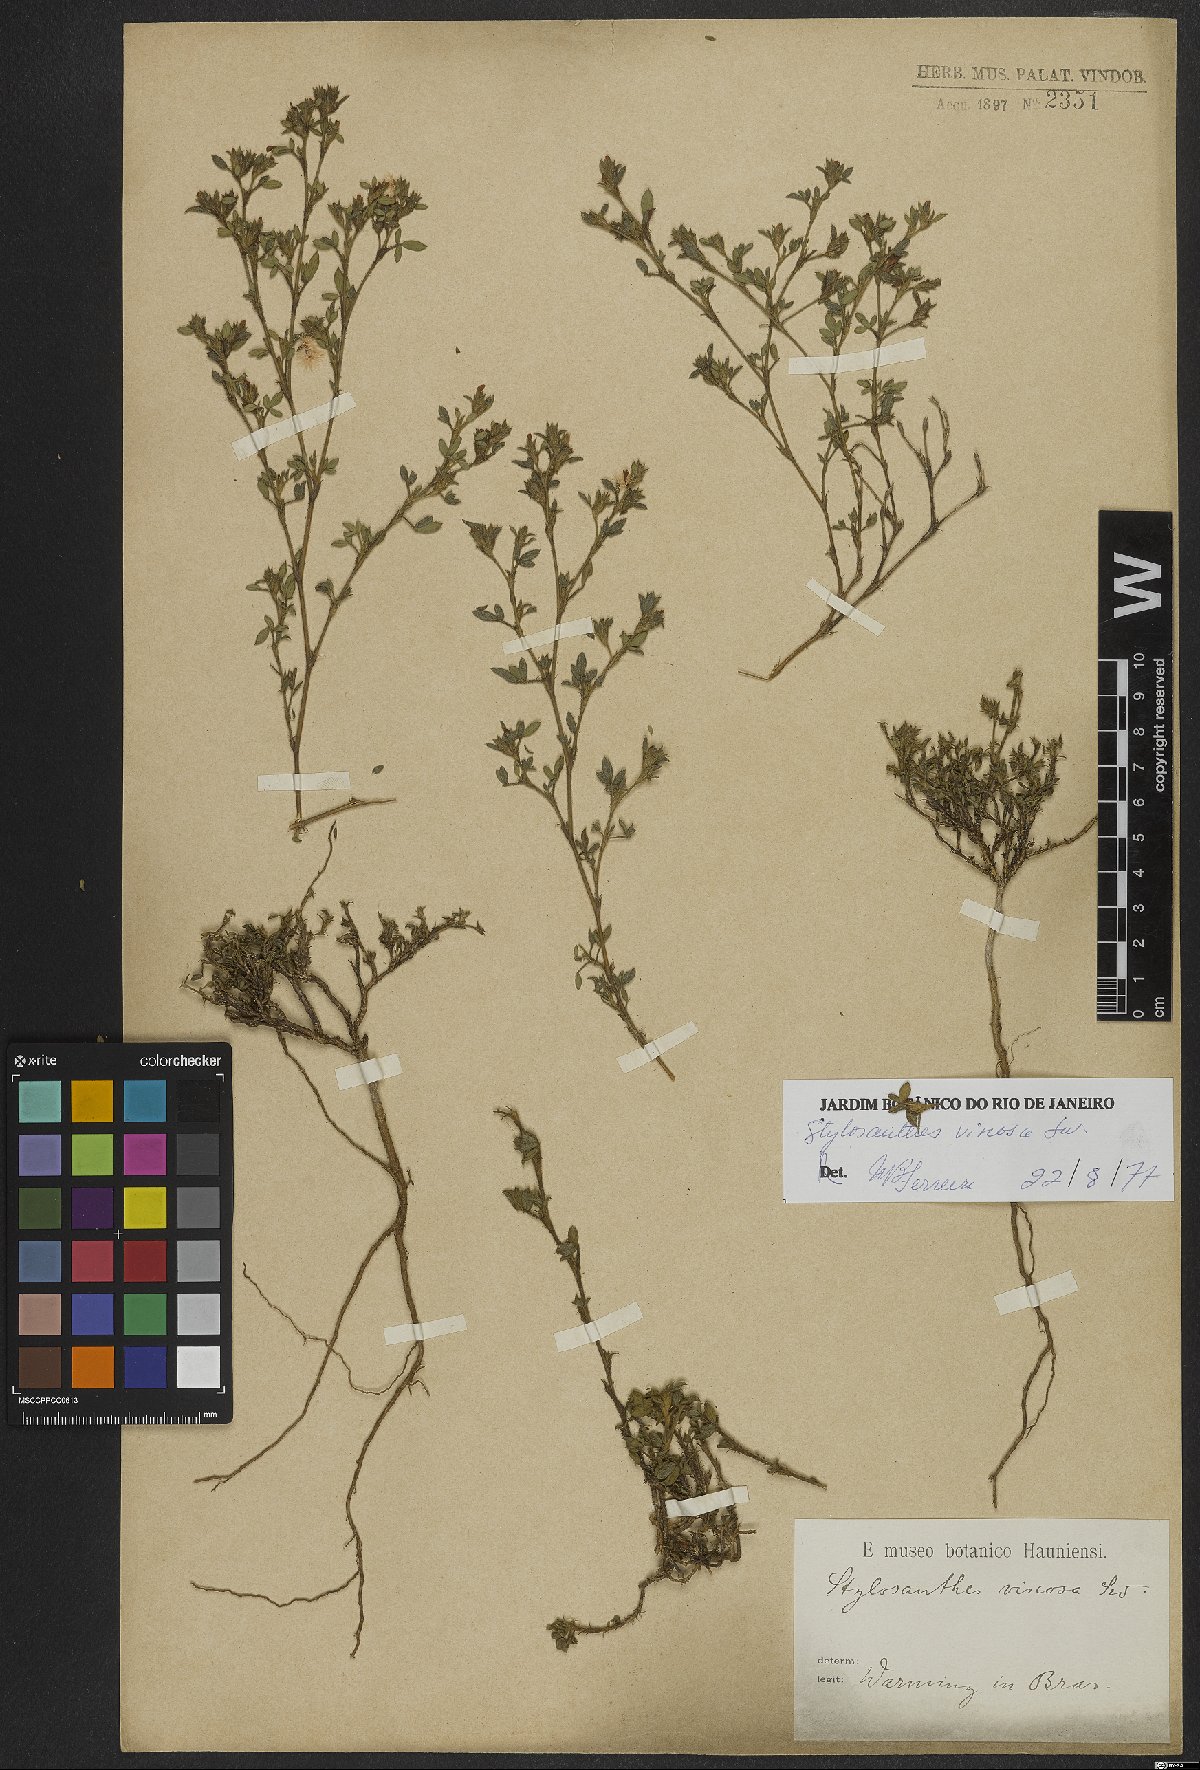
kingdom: Plantae
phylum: Tracheophyta
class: Magnoliopsida
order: Fabales
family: Fabaceae
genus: Stylosanthes
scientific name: Stylosanthes viscosa
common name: Viscid pencil-flower
